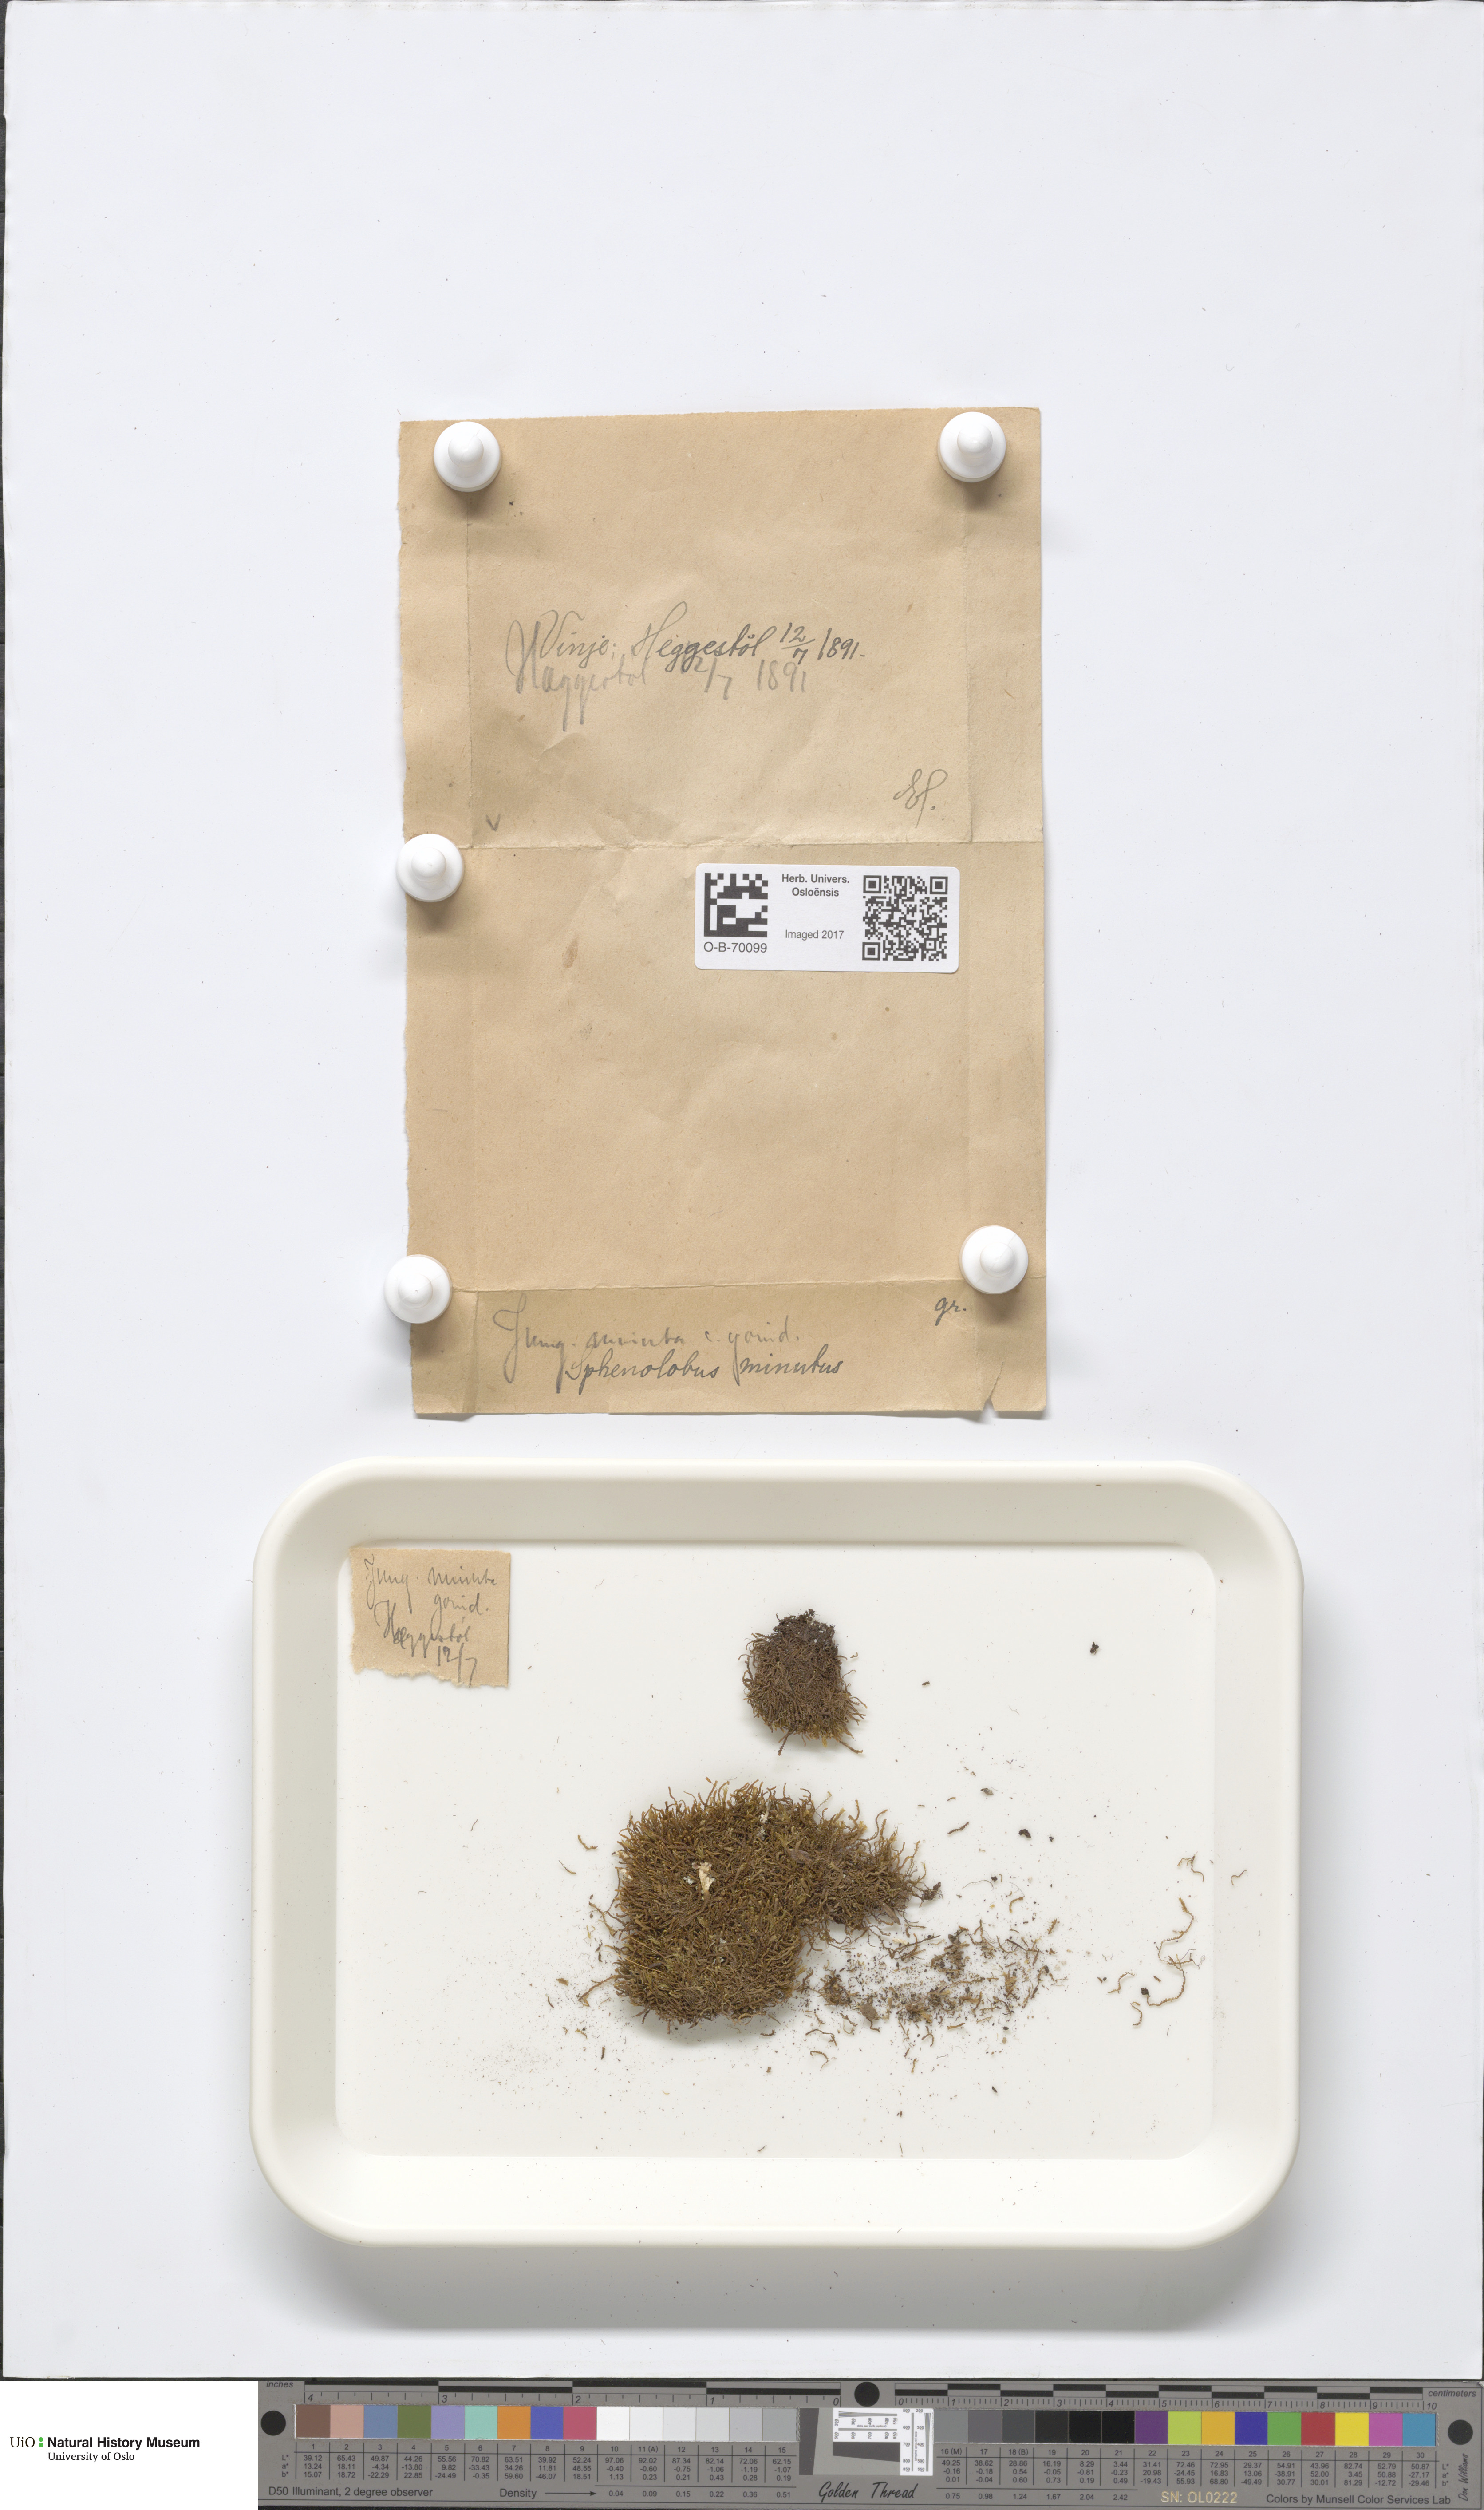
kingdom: Plantae
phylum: Marchantiophyta
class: Jungermanniopsida
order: Jungermanniales
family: Anastrophyllaceae
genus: Sphenolobus
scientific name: Sphenolobus minutus
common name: Comb notchwort
